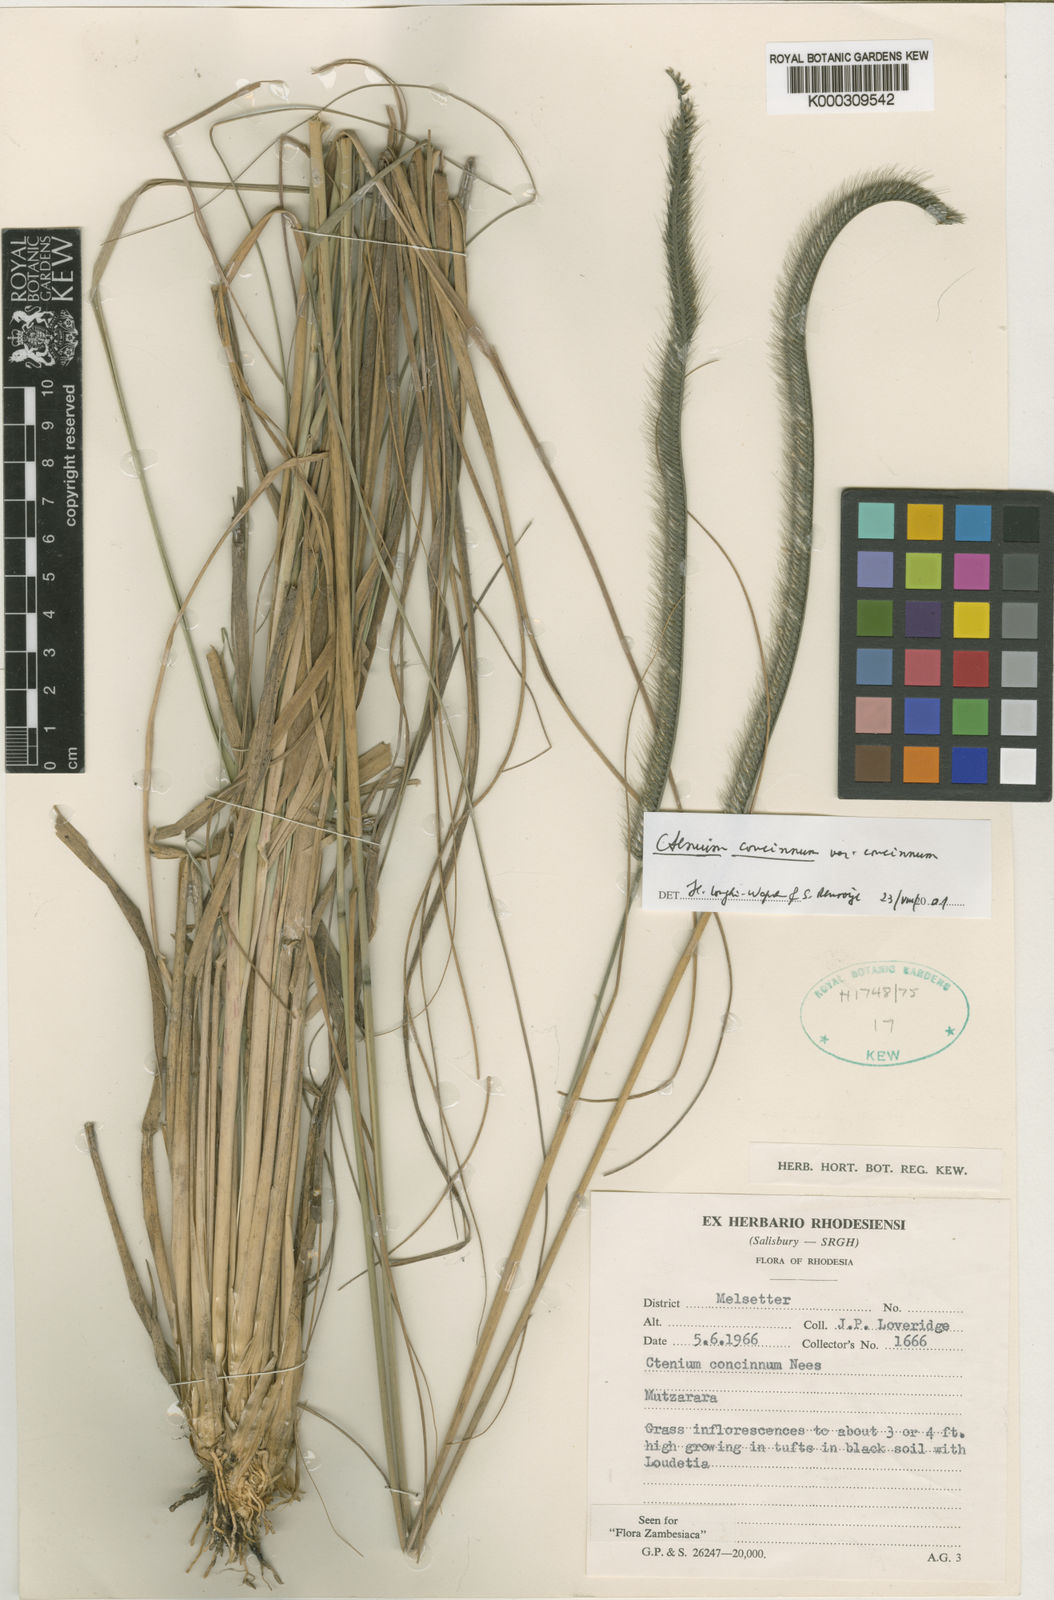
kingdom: Plantae
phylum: Tracheophyta
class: Liliopsida
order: Poales
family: Poaceae
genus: Ctenium
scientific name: Ctenium concinnum
